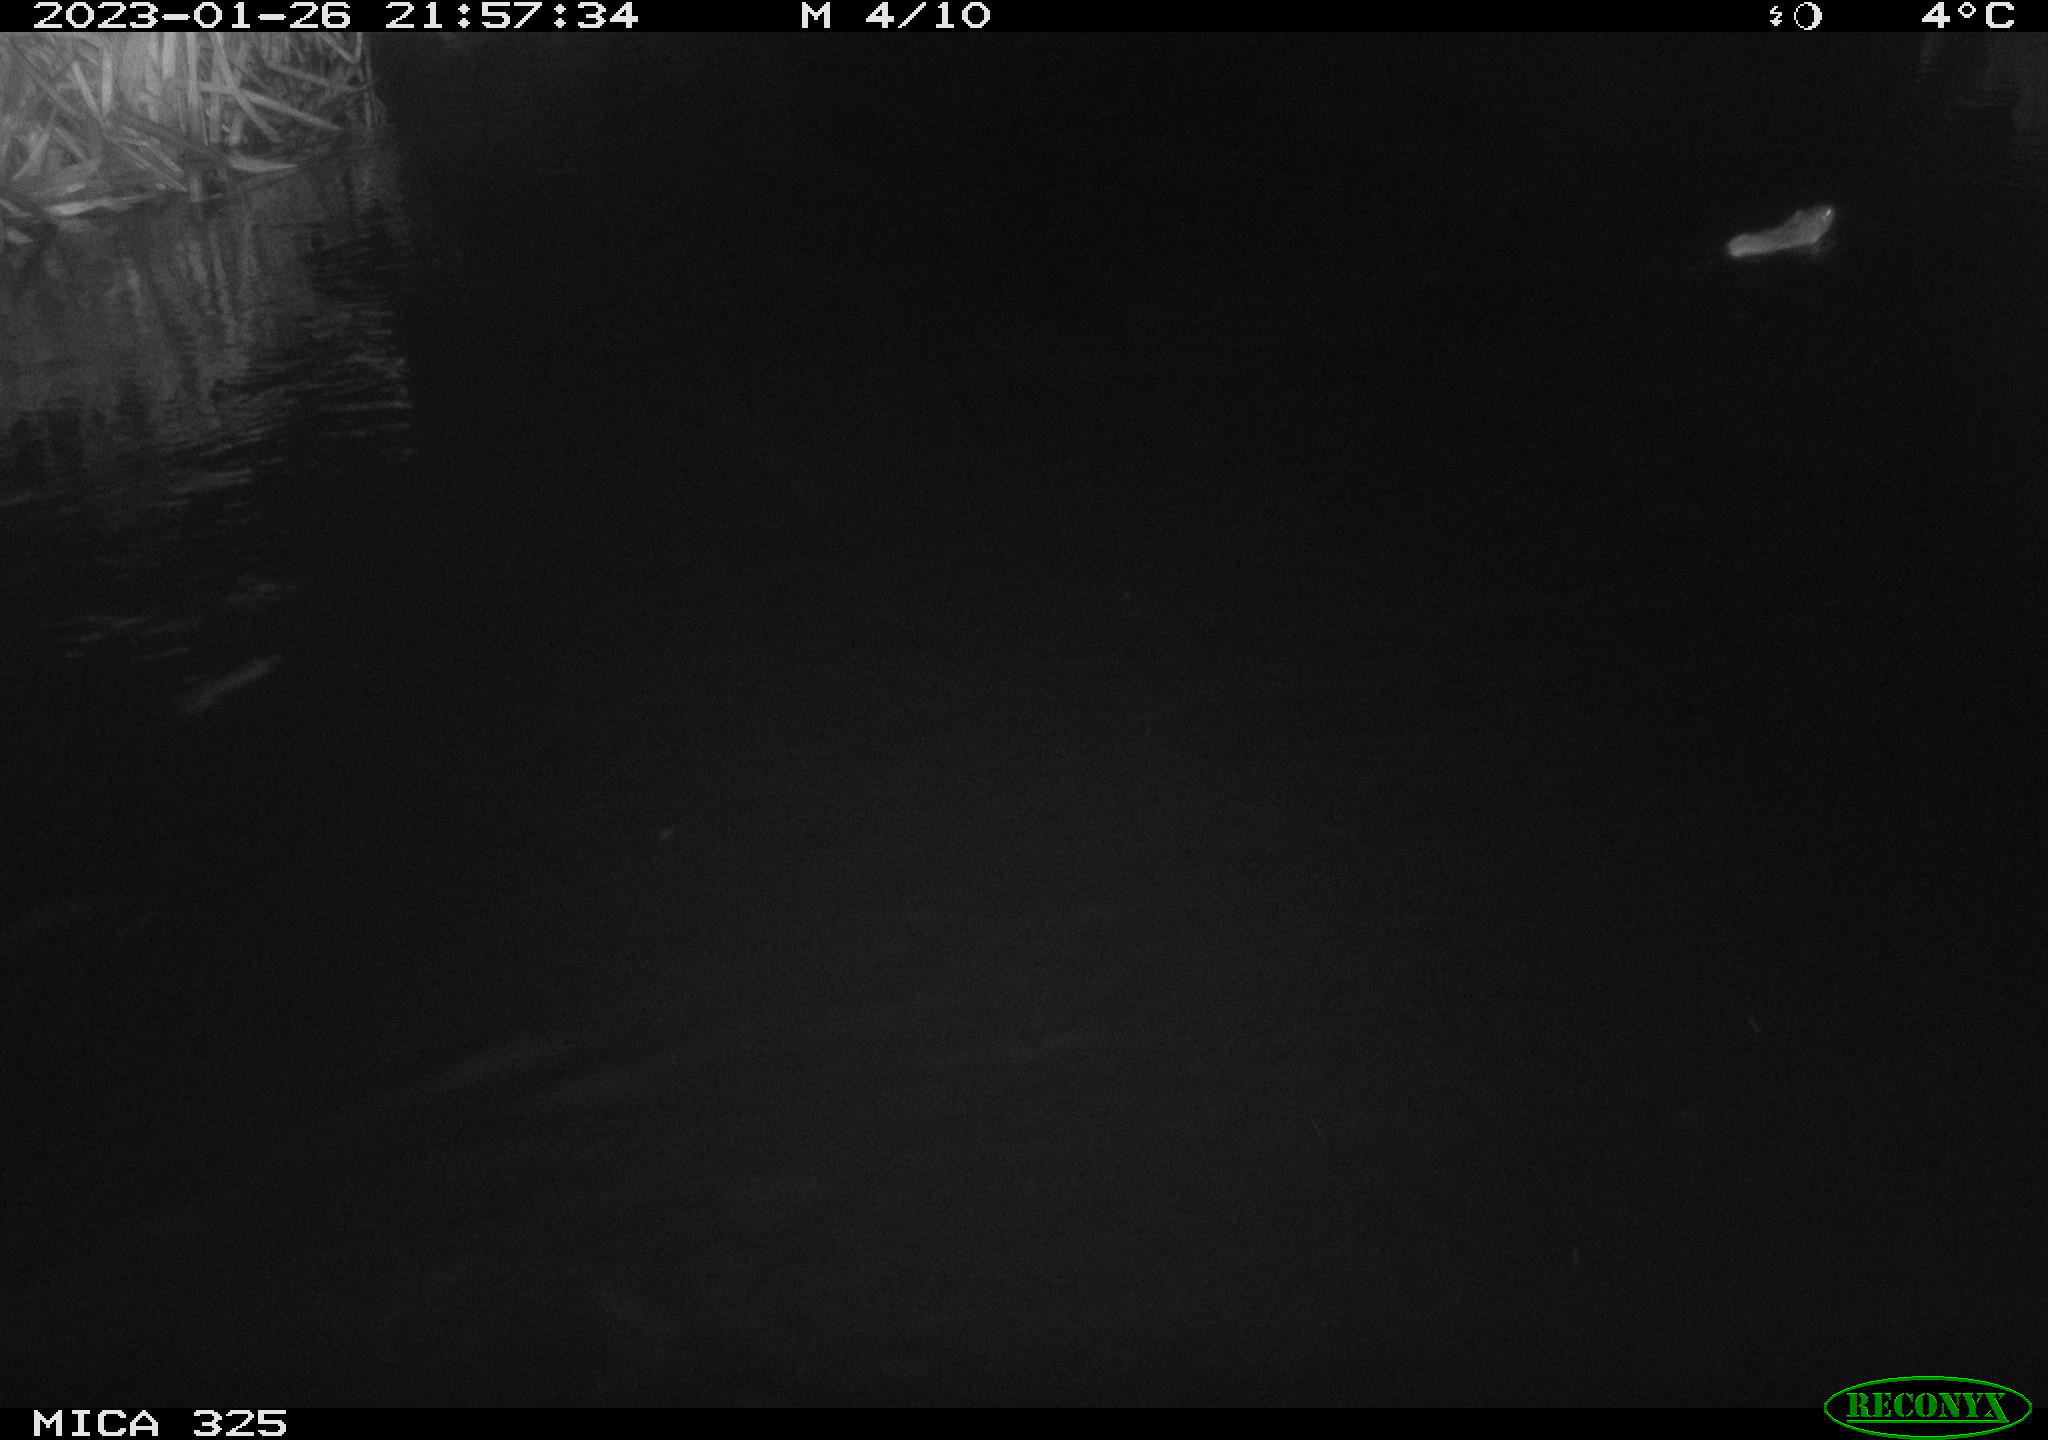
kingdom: Animalia
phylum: Chordata
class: Mammalia
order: Rodentia
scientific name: Rodentia
